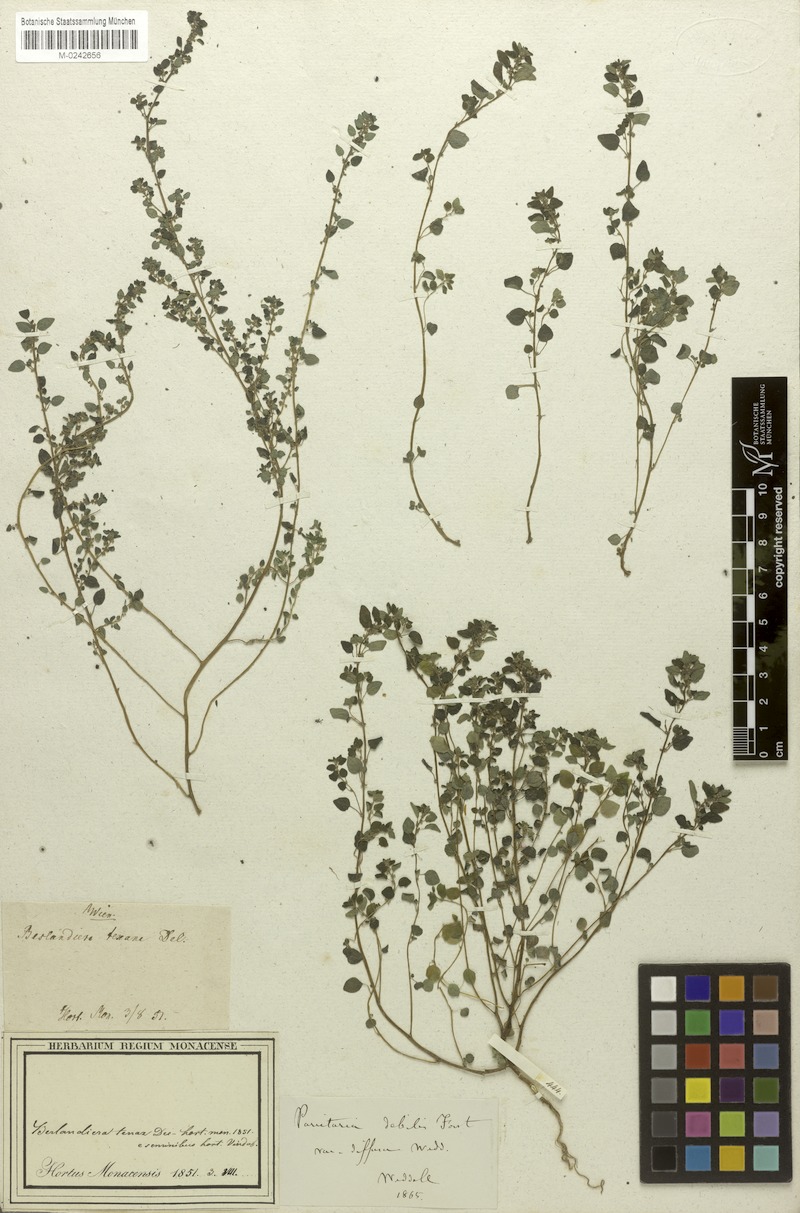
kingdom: Plantae
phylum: Tracheophyta
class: Magnoliopsida
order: Rosales
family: Urticaceae
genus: Parietaria
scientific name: Parietaria debilis
